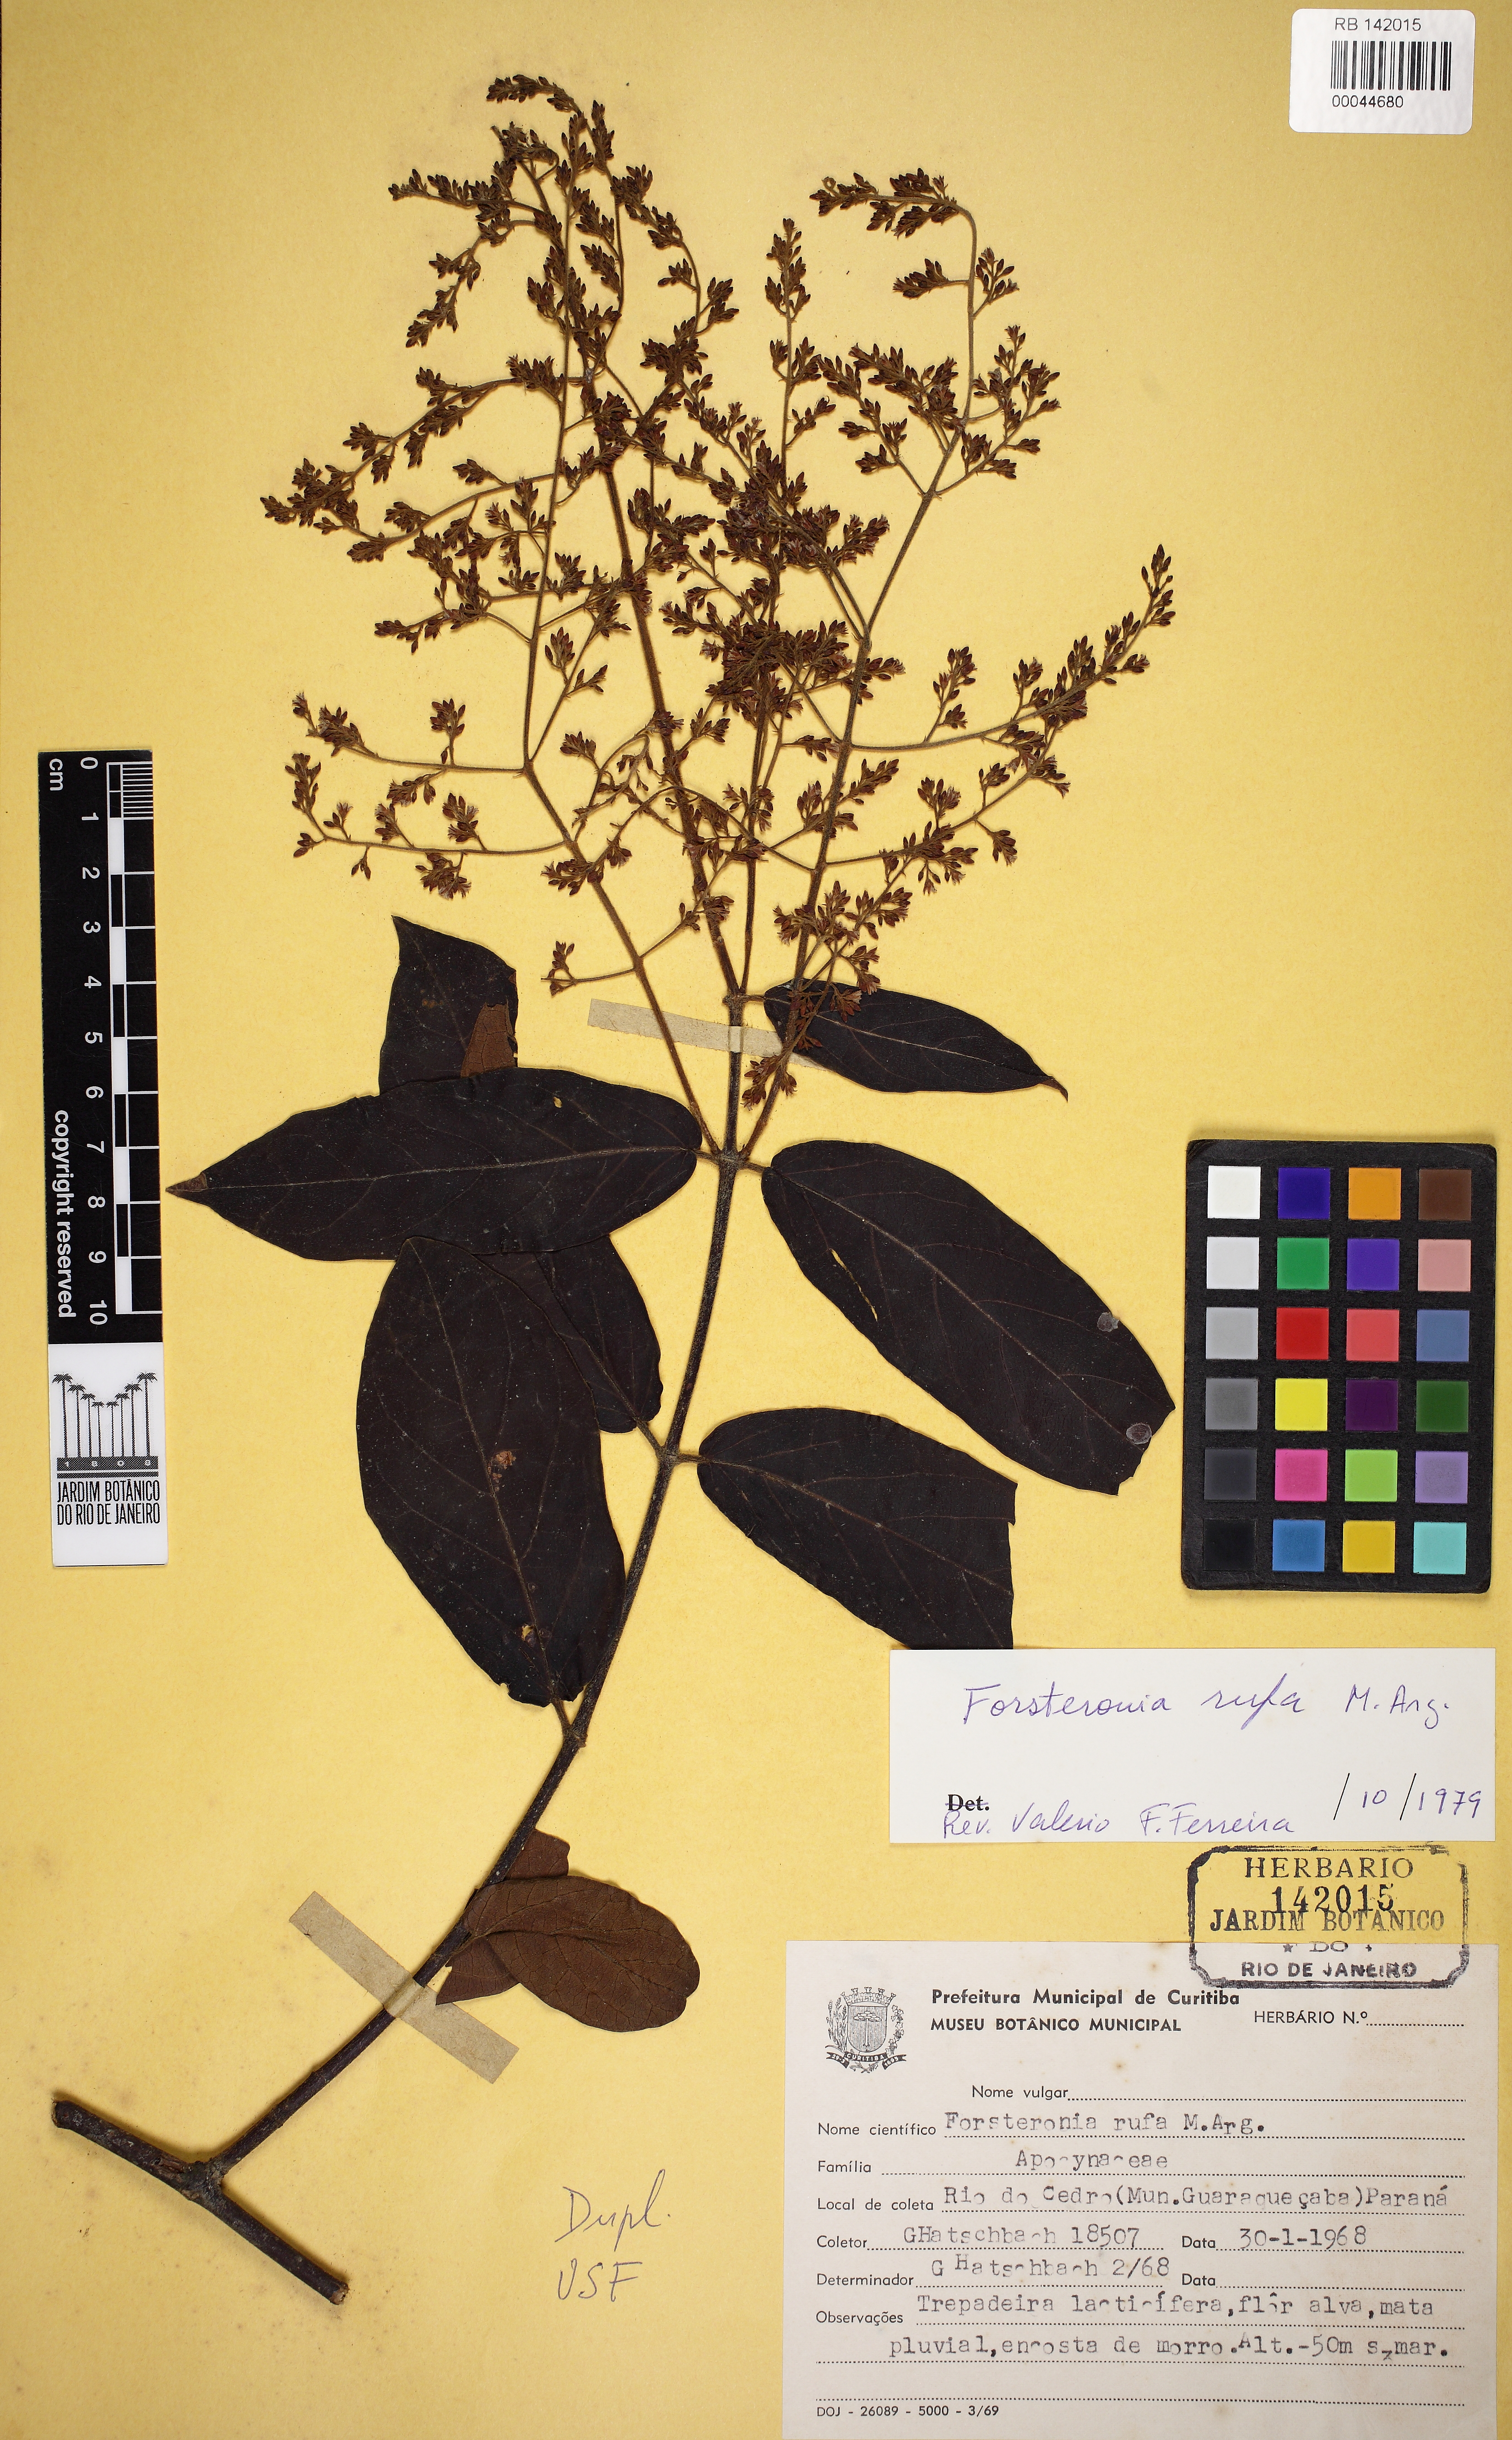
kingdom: Plantae
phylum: Tracheophyta
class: Magnoliopsida
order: Gentianales
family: Apocynaceae
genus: Forsteronia
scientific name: Forsteronia rufa
